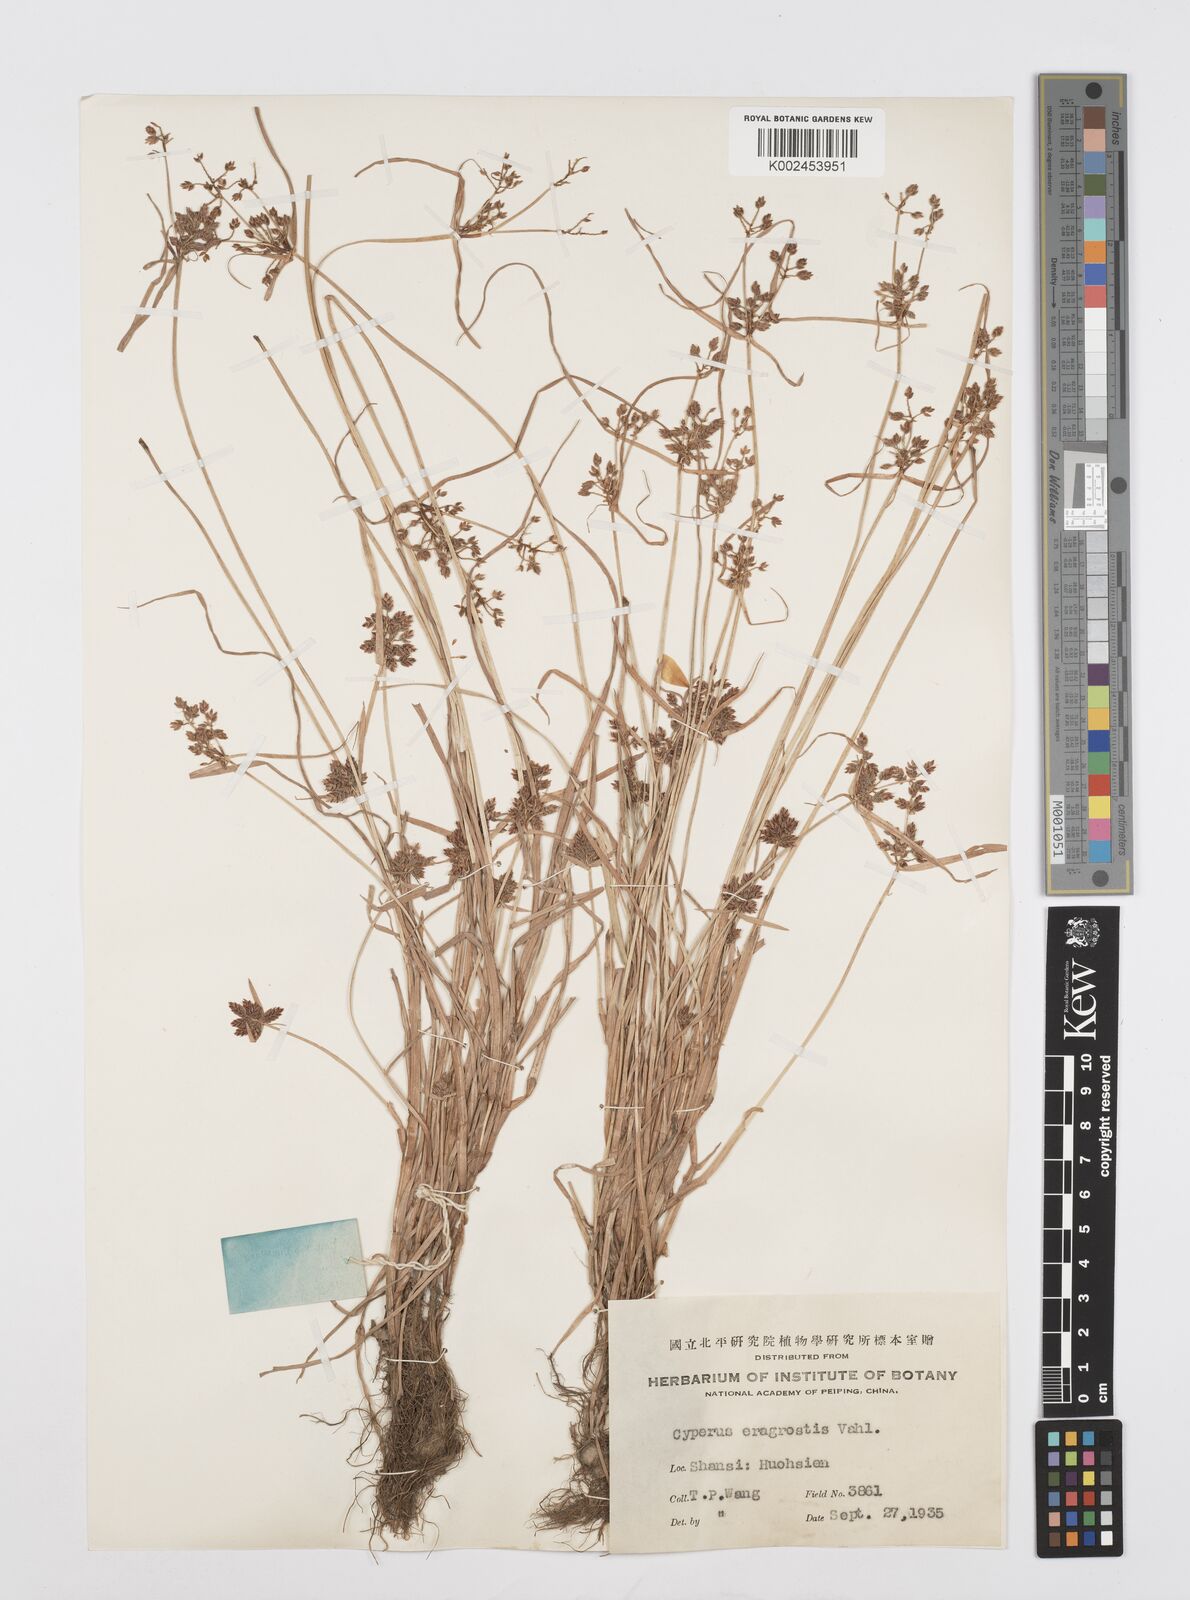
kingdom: Plantae
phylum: Tracheophyta
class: Liliopsida
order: Poales
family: Cyperaceae
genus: Cyperus
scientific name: Cyperus sanguinolentus
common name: Purpleglume flatsedge
